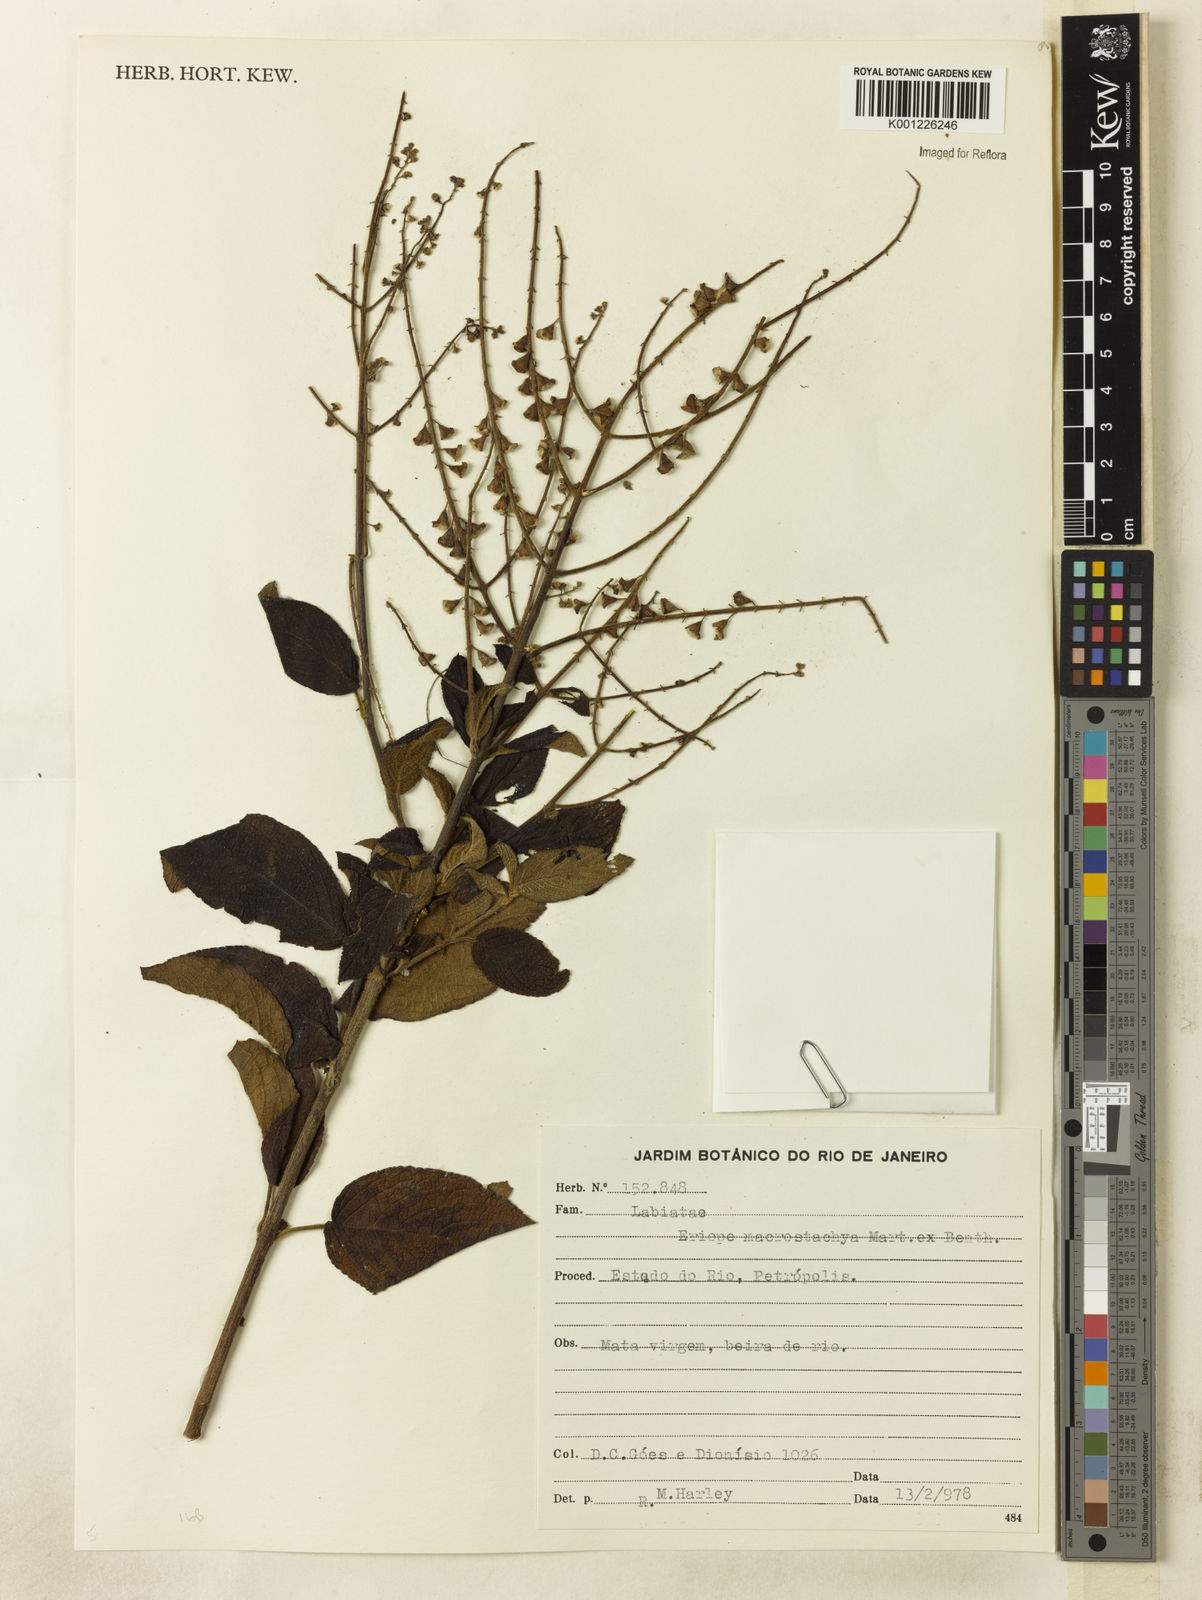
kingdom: Plantae
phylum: Tracheophyta
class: Magnoliopsida
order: Lamiales
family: Lamiaceae
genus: Eriope
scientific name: Eriope macrostachya
